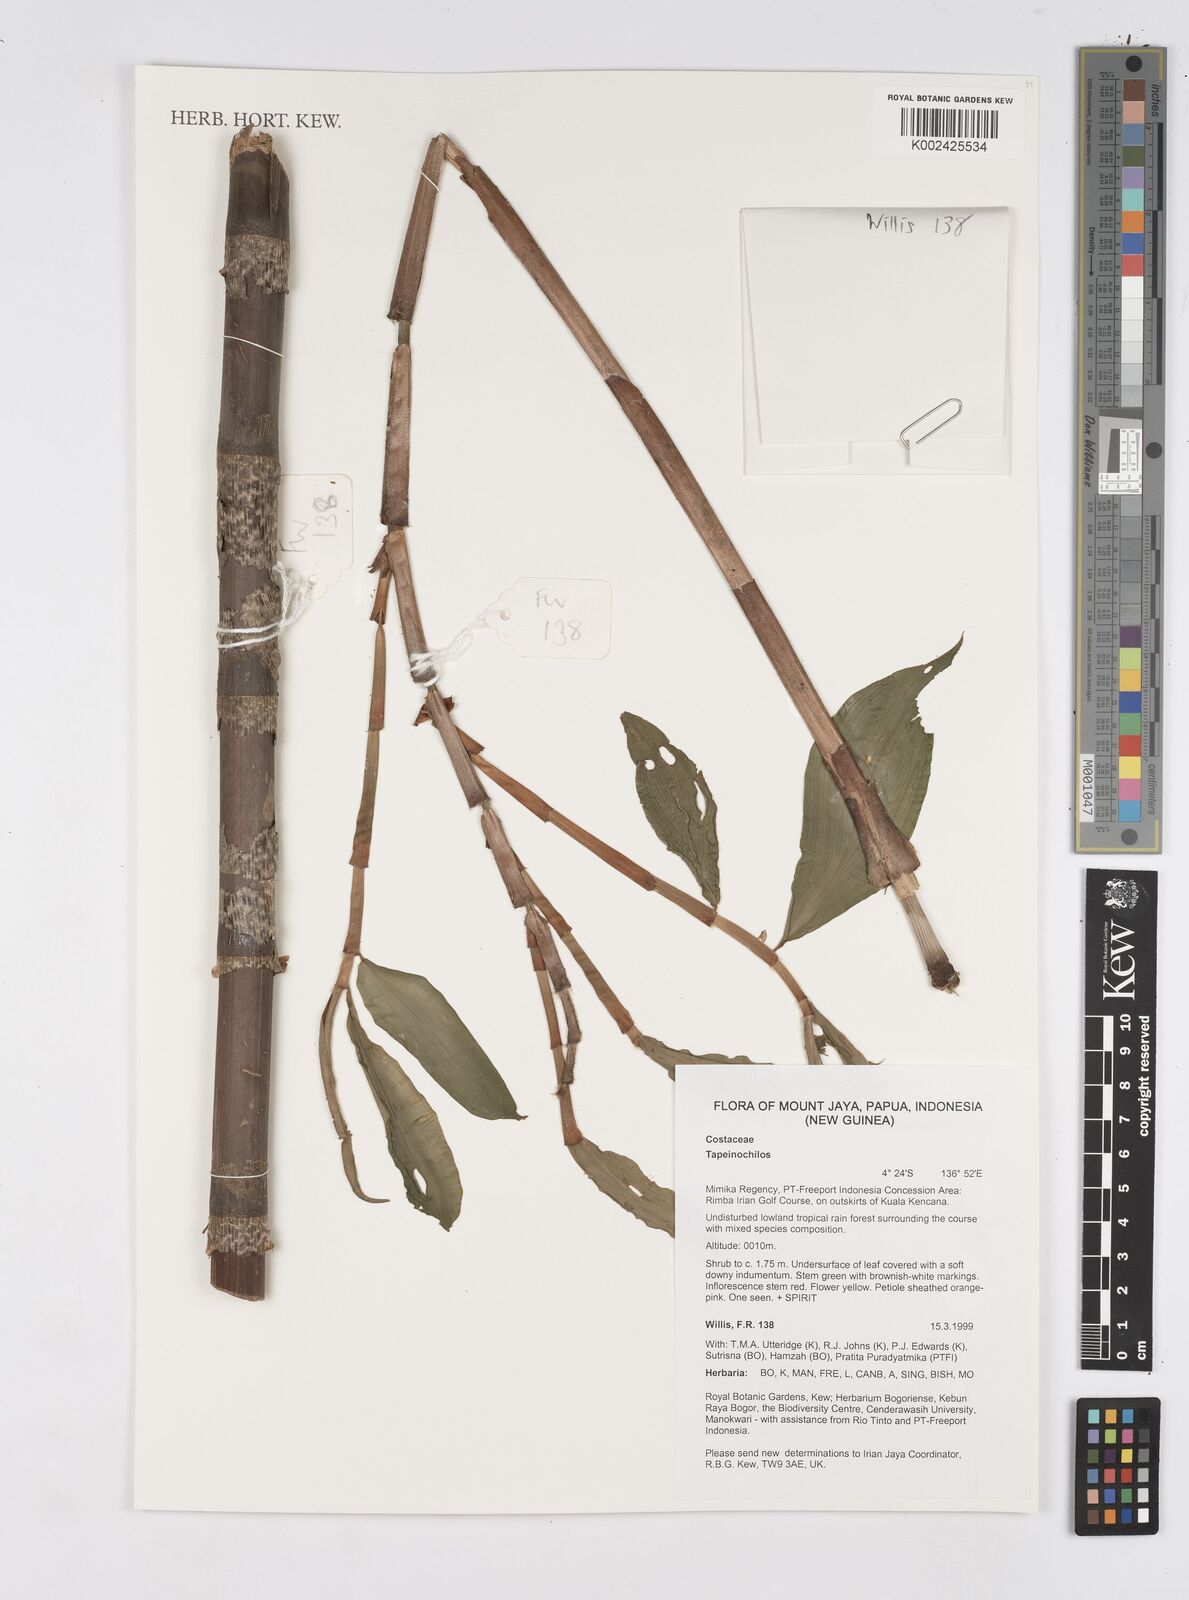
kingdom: Plantae
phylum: Tracheophyta
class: Liliopsida
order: Zingiberales
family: Costaceae
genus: Tapeinochilos
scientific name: Tapeinochilos
